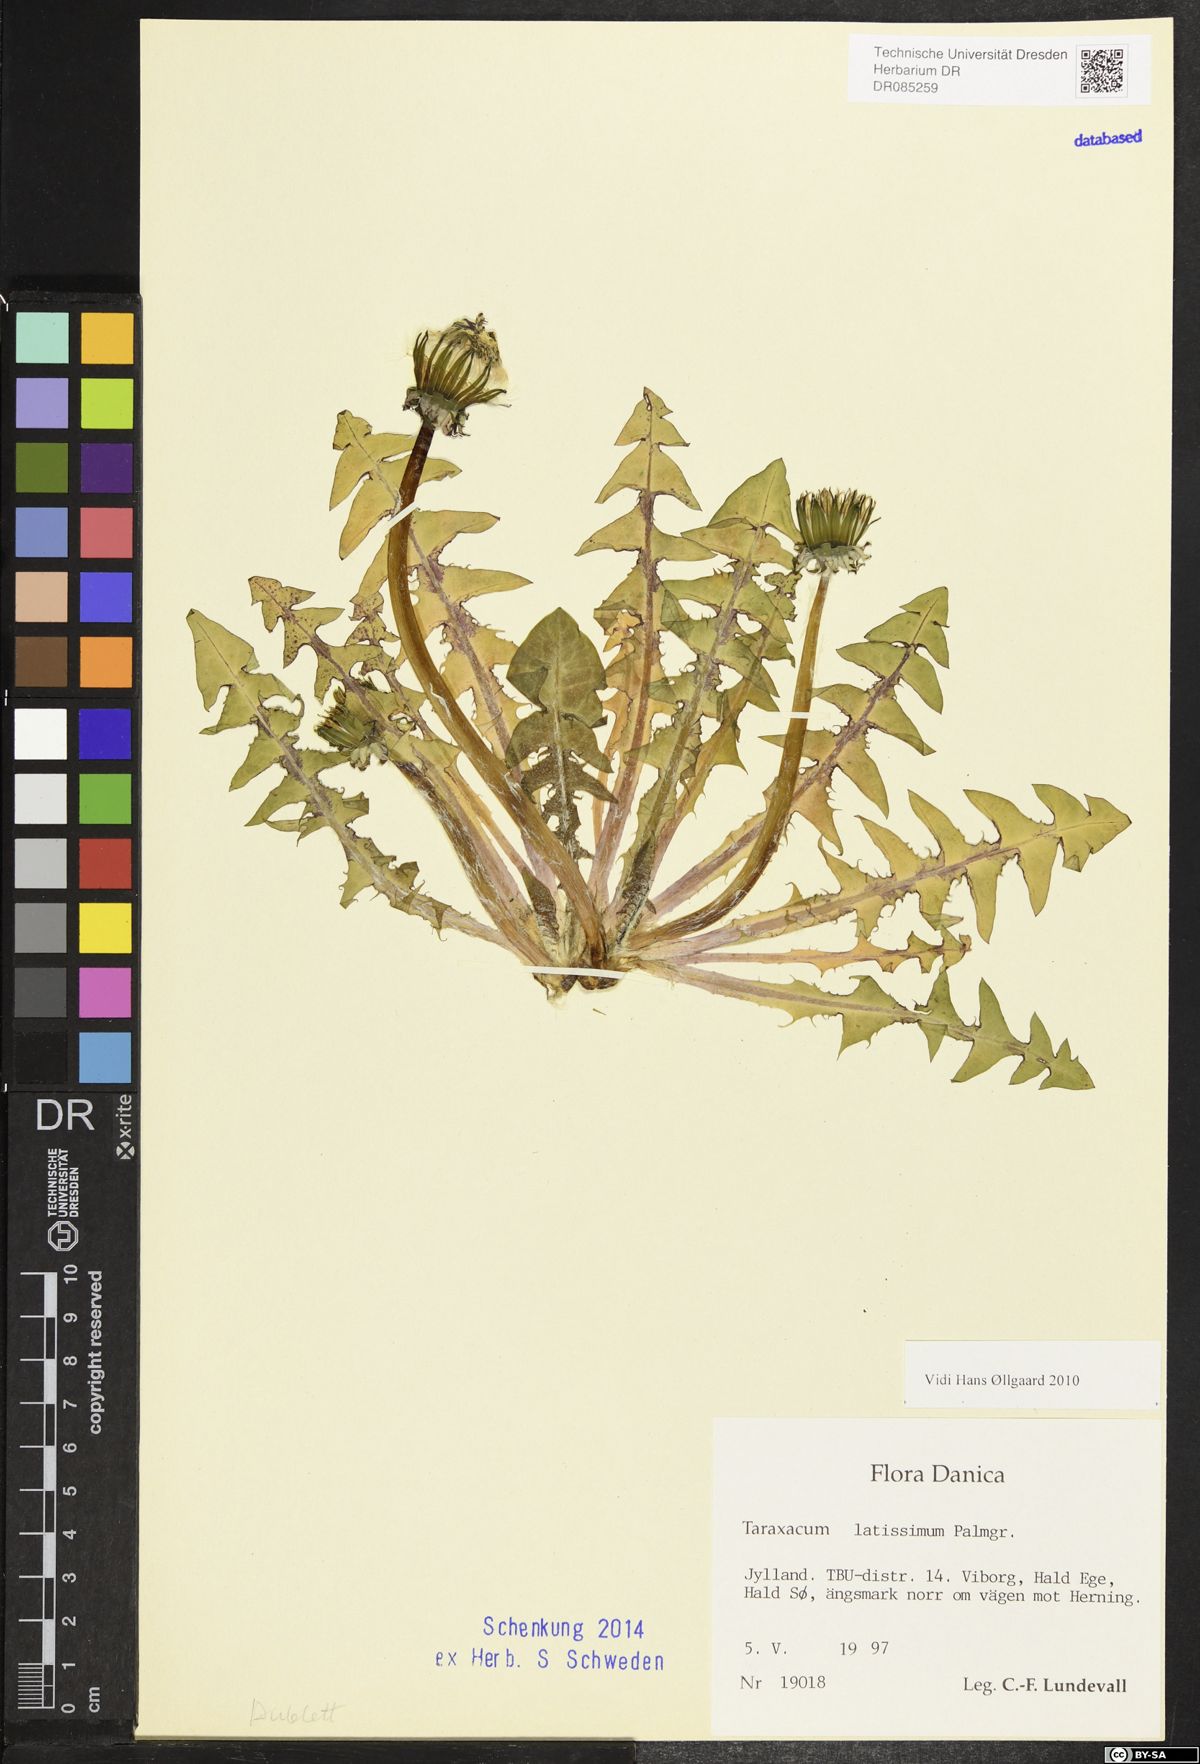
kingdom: Plantae
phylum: Tracheophyta
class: Magnoliopsida
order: Asterales
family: Asteraceae
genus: Taraxacum
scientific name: Taraxacum latissimum
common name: Broad-leaved dandelion
